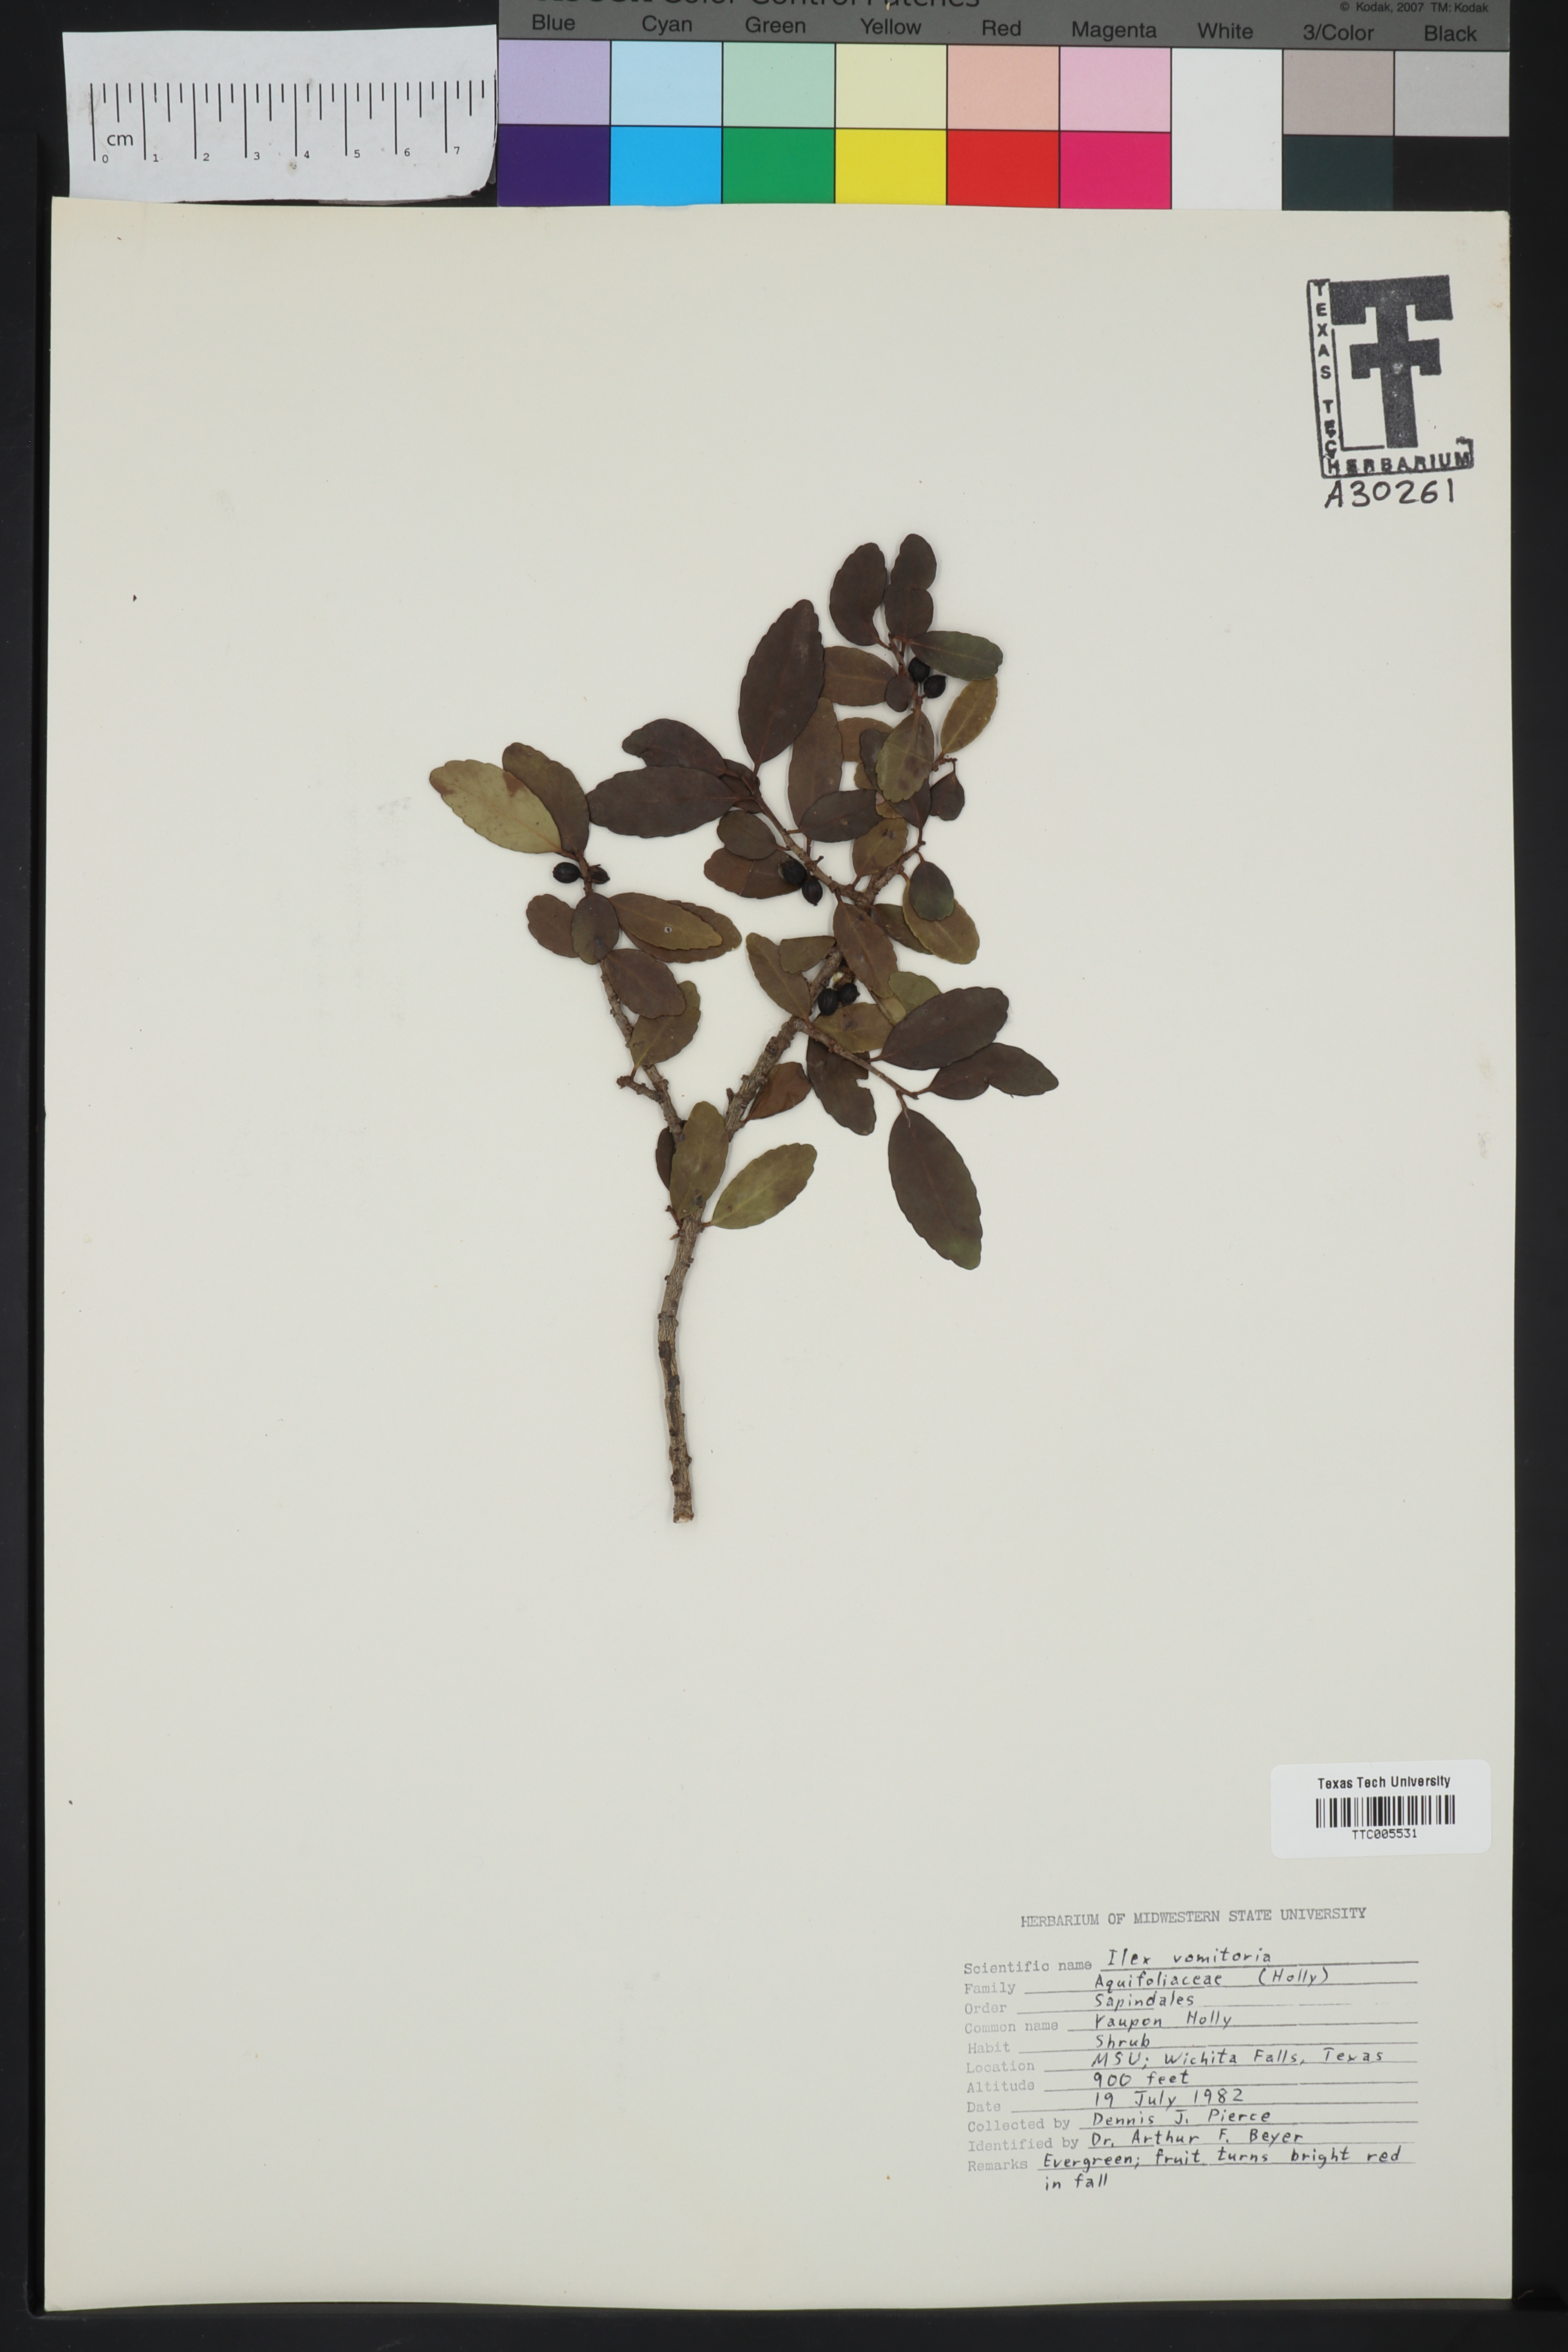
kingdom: Plantae
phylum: Tracheophyta
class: Magnoliopsida
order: Aquifoliales
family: Aquifoliaceae
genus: Ilex
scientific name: Ilex vomitoria
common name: Yaupon holly
